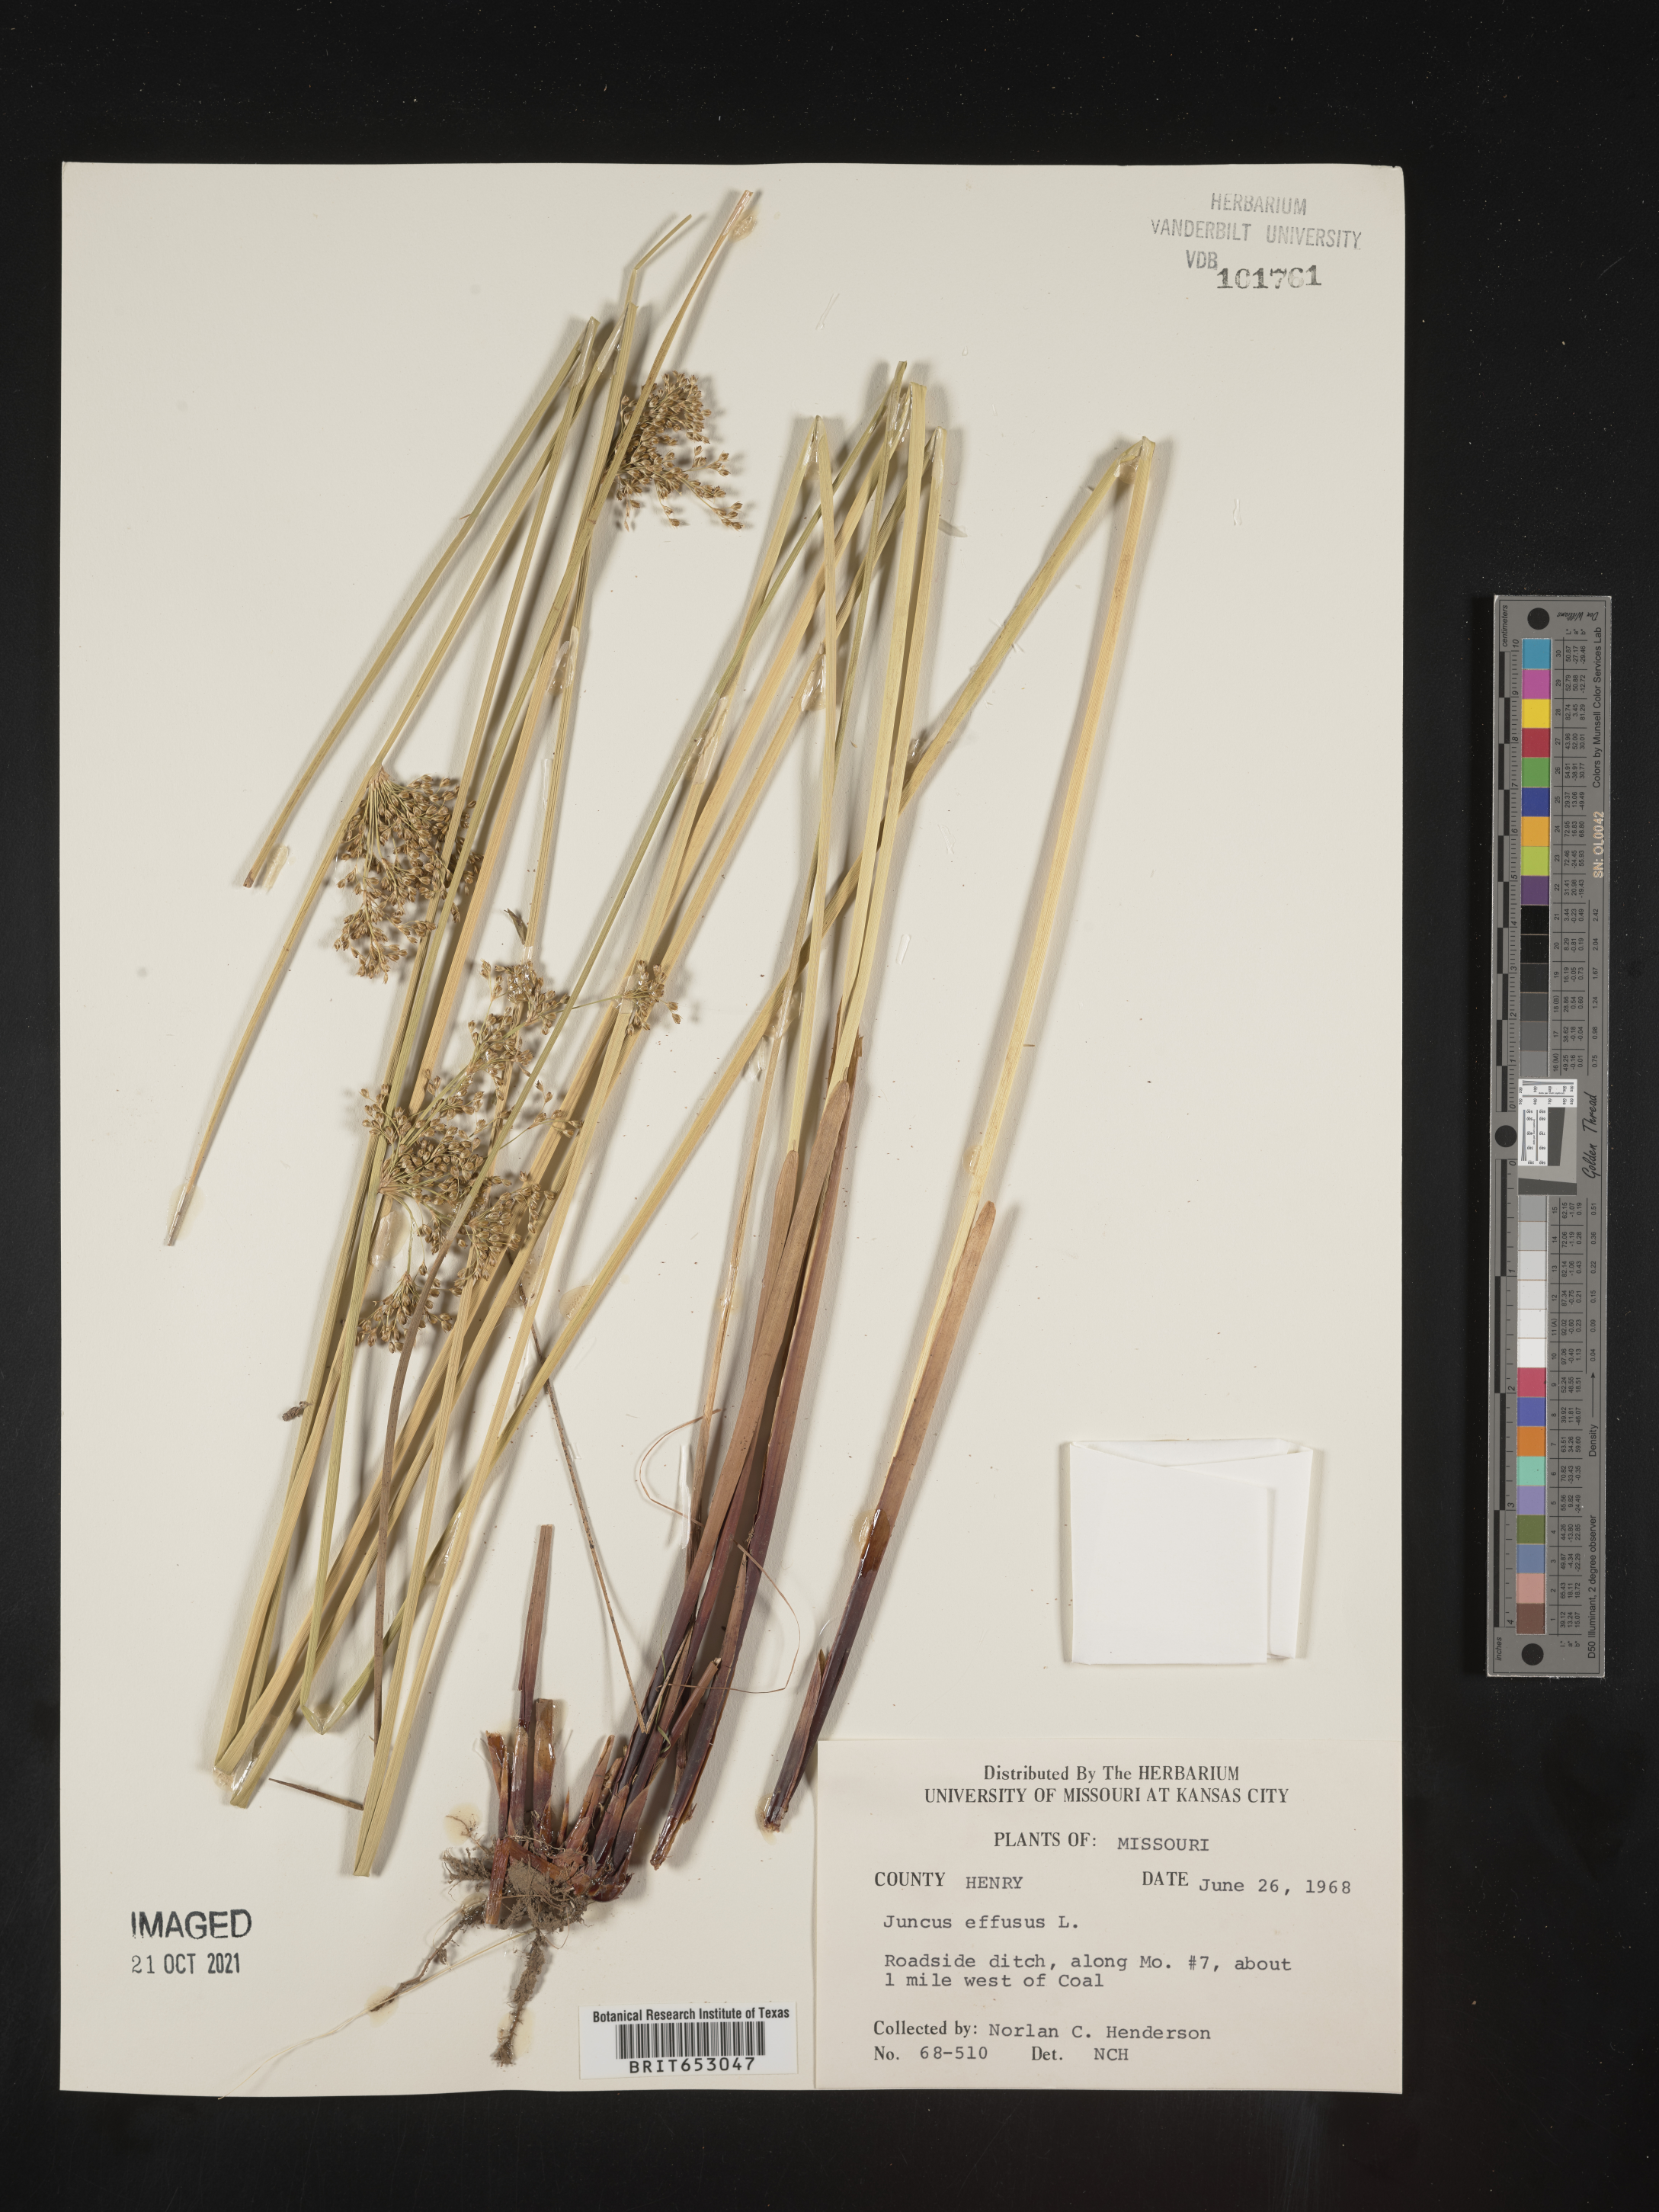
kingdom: Plantae
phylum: Tracheophyta
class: Liliopsida
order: Poales
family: Juncaceae
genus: Juncus
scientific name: Juncus effusus
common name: Soft rush
